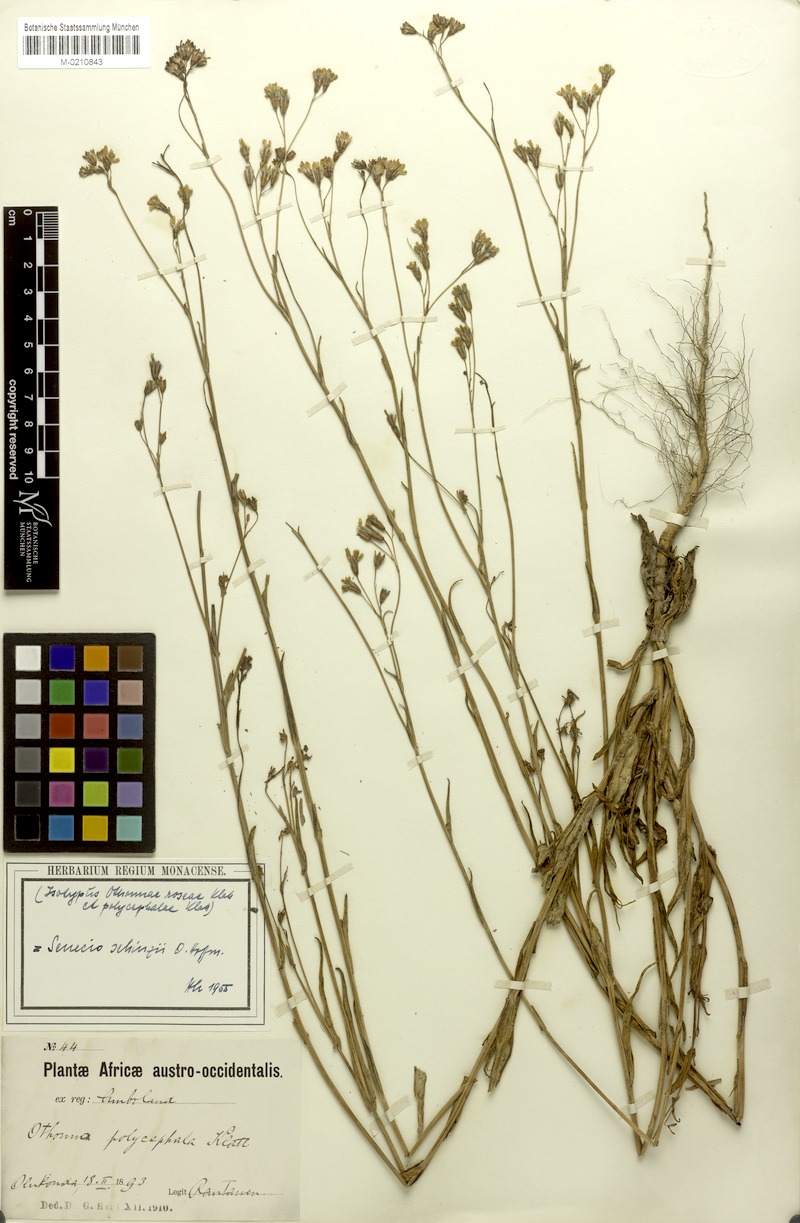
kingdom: Plantae
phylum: Tracheophyta
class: Magnoliopsida
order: Asterales
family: Asteraceae
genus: Emilia
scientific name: Emilia schinzii
